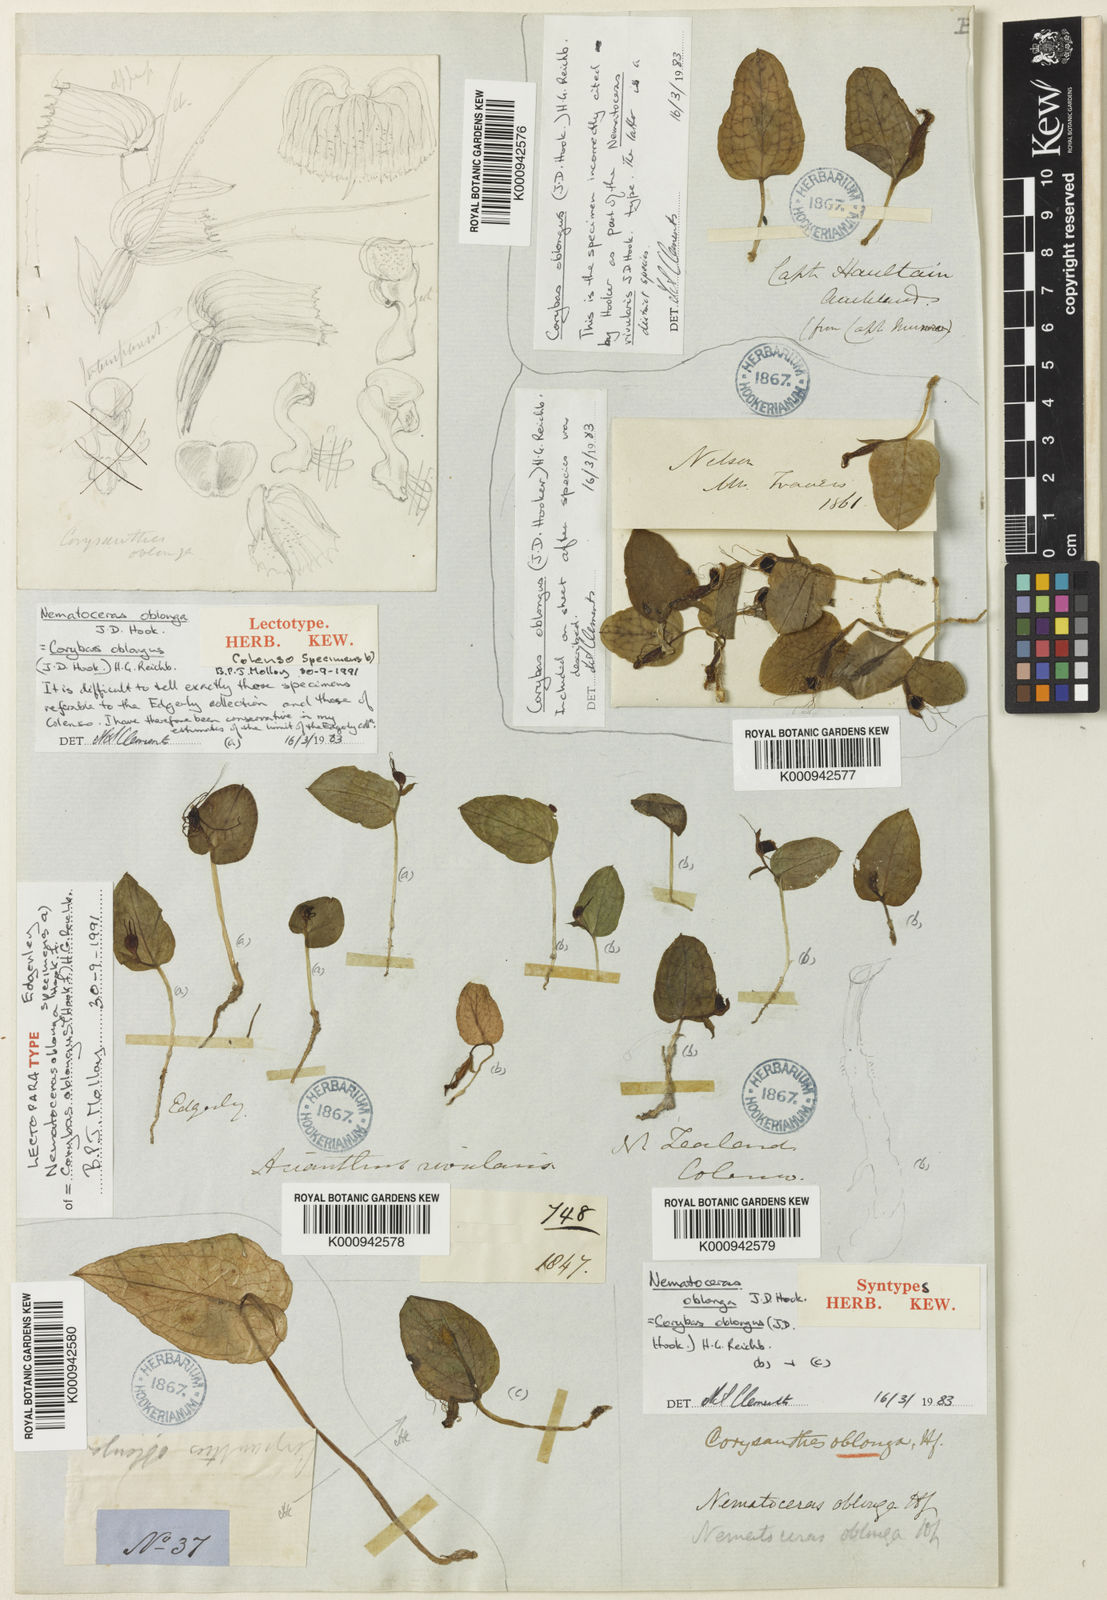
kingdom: Plantae
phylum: Tracheophyta
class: Liliopsida
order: Asparagales
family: Orchidaceae
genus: Corybas
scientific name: Corybas oblongus
